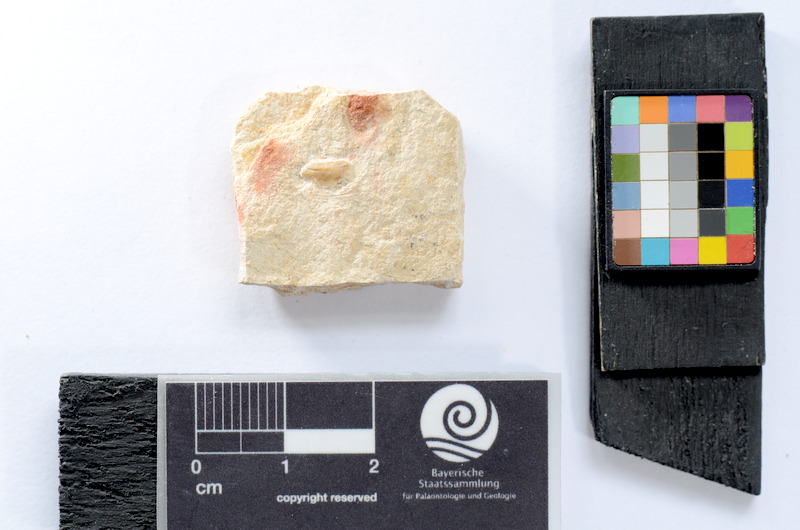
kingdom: Animalia
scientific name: Animalia
